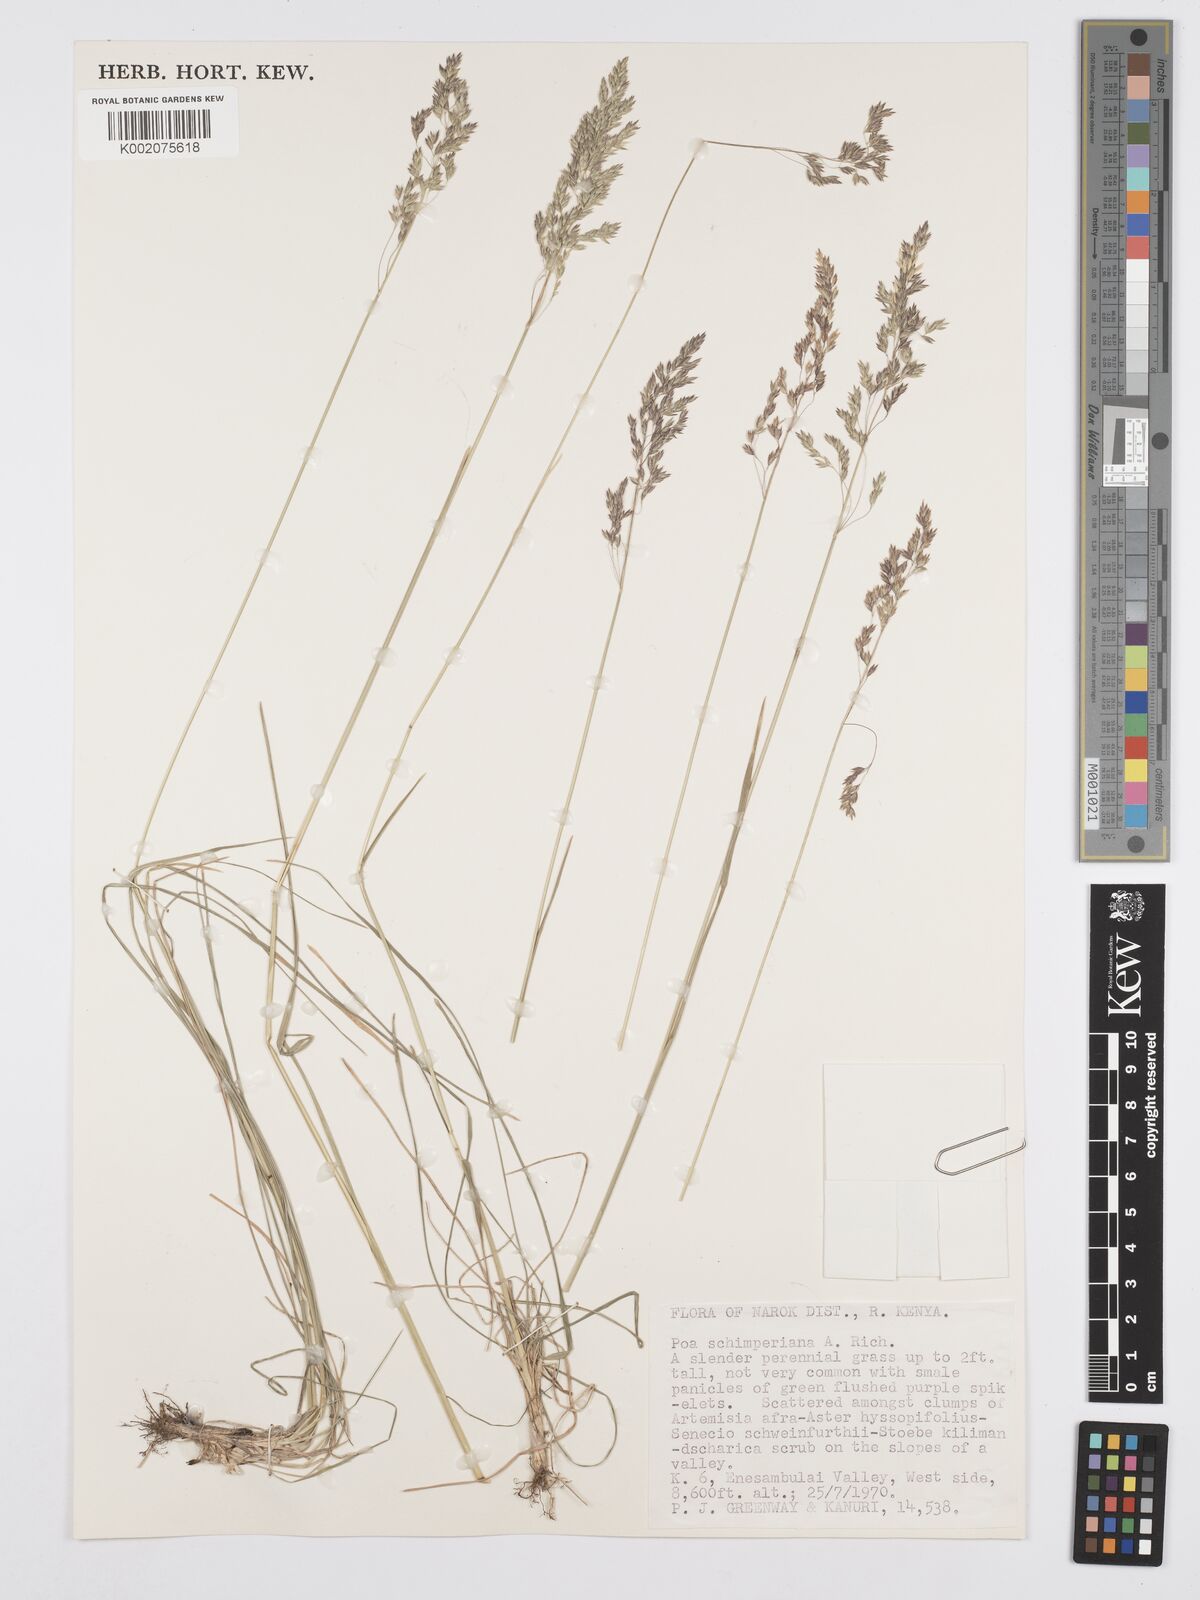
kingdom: Plantae
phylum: Tracheophyta
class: Liliopsida
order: Poales
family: Poaceae
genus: Poa
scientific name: Poa schimperiana
